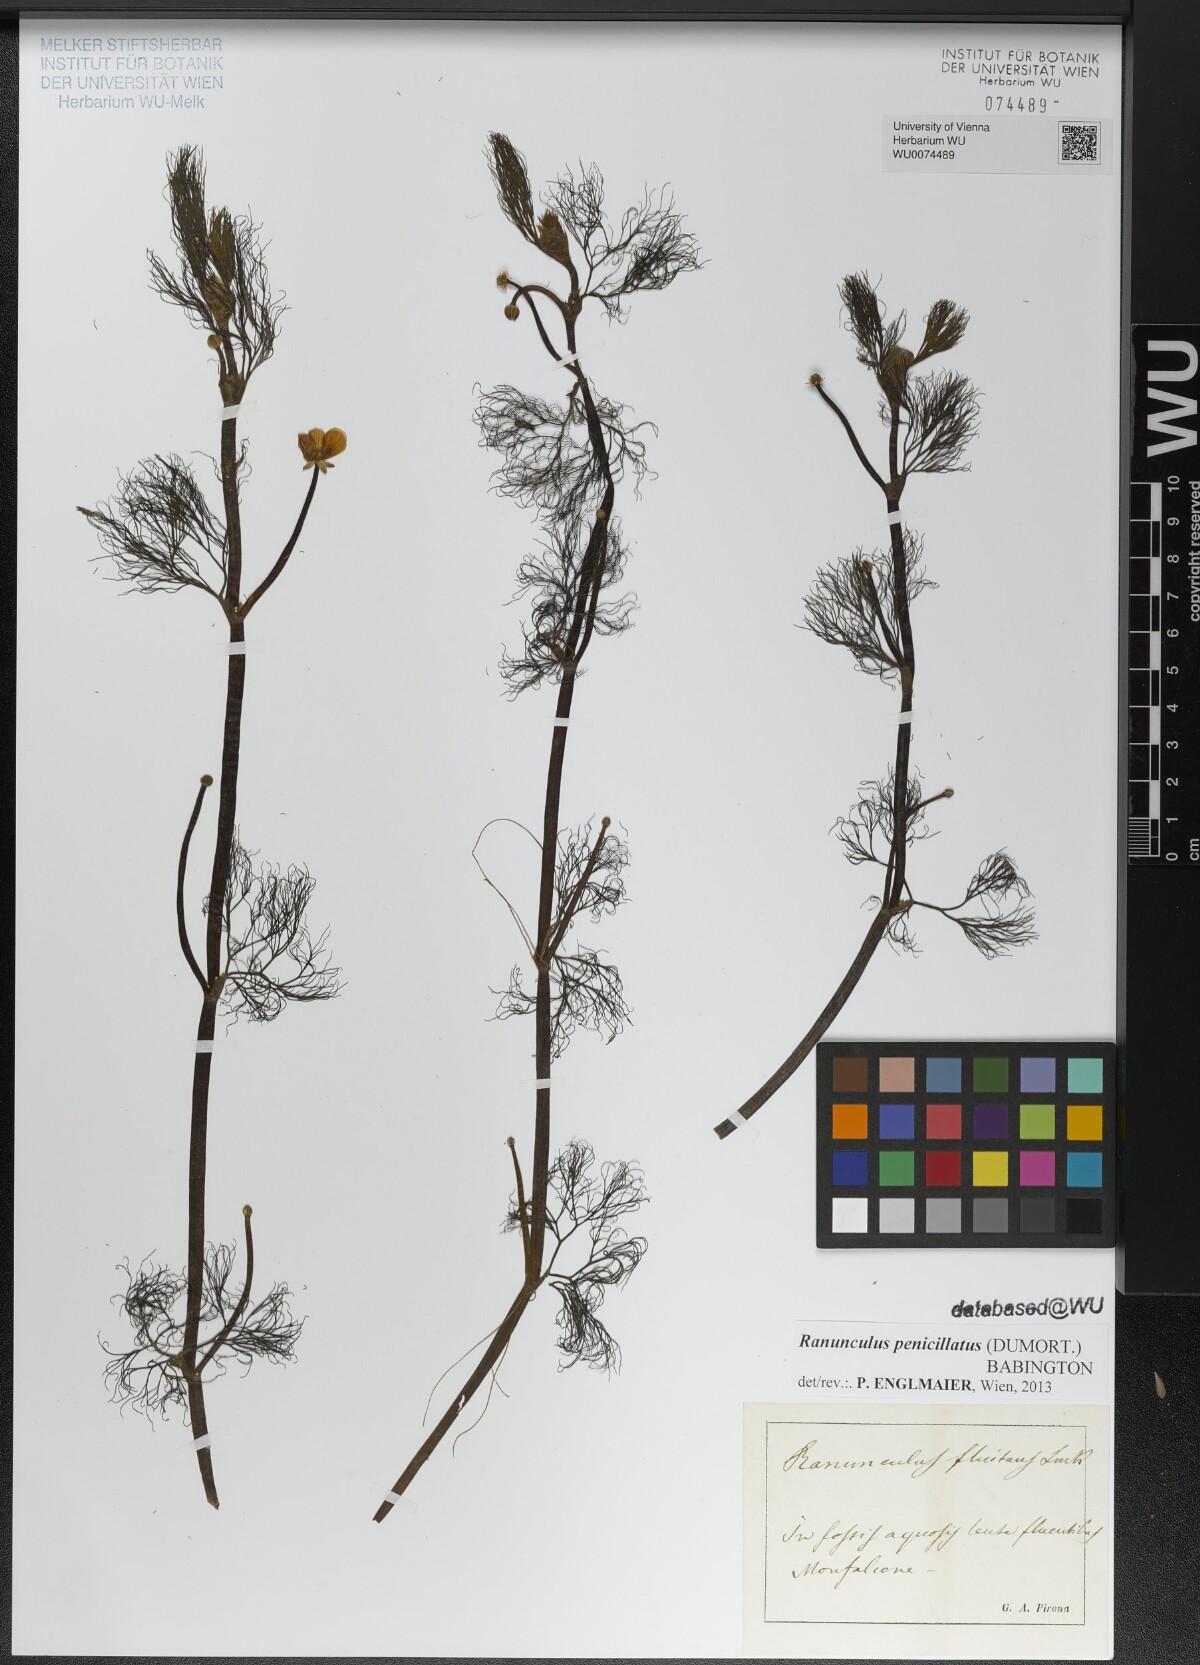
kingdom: Plantae
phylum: Tracheophyta
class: Magnoliopsida
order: Ranunculales
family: Ranunculaceae
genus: Ranunculus
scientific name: Ranunculus penicillatus
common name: Stream water-crowfoot
